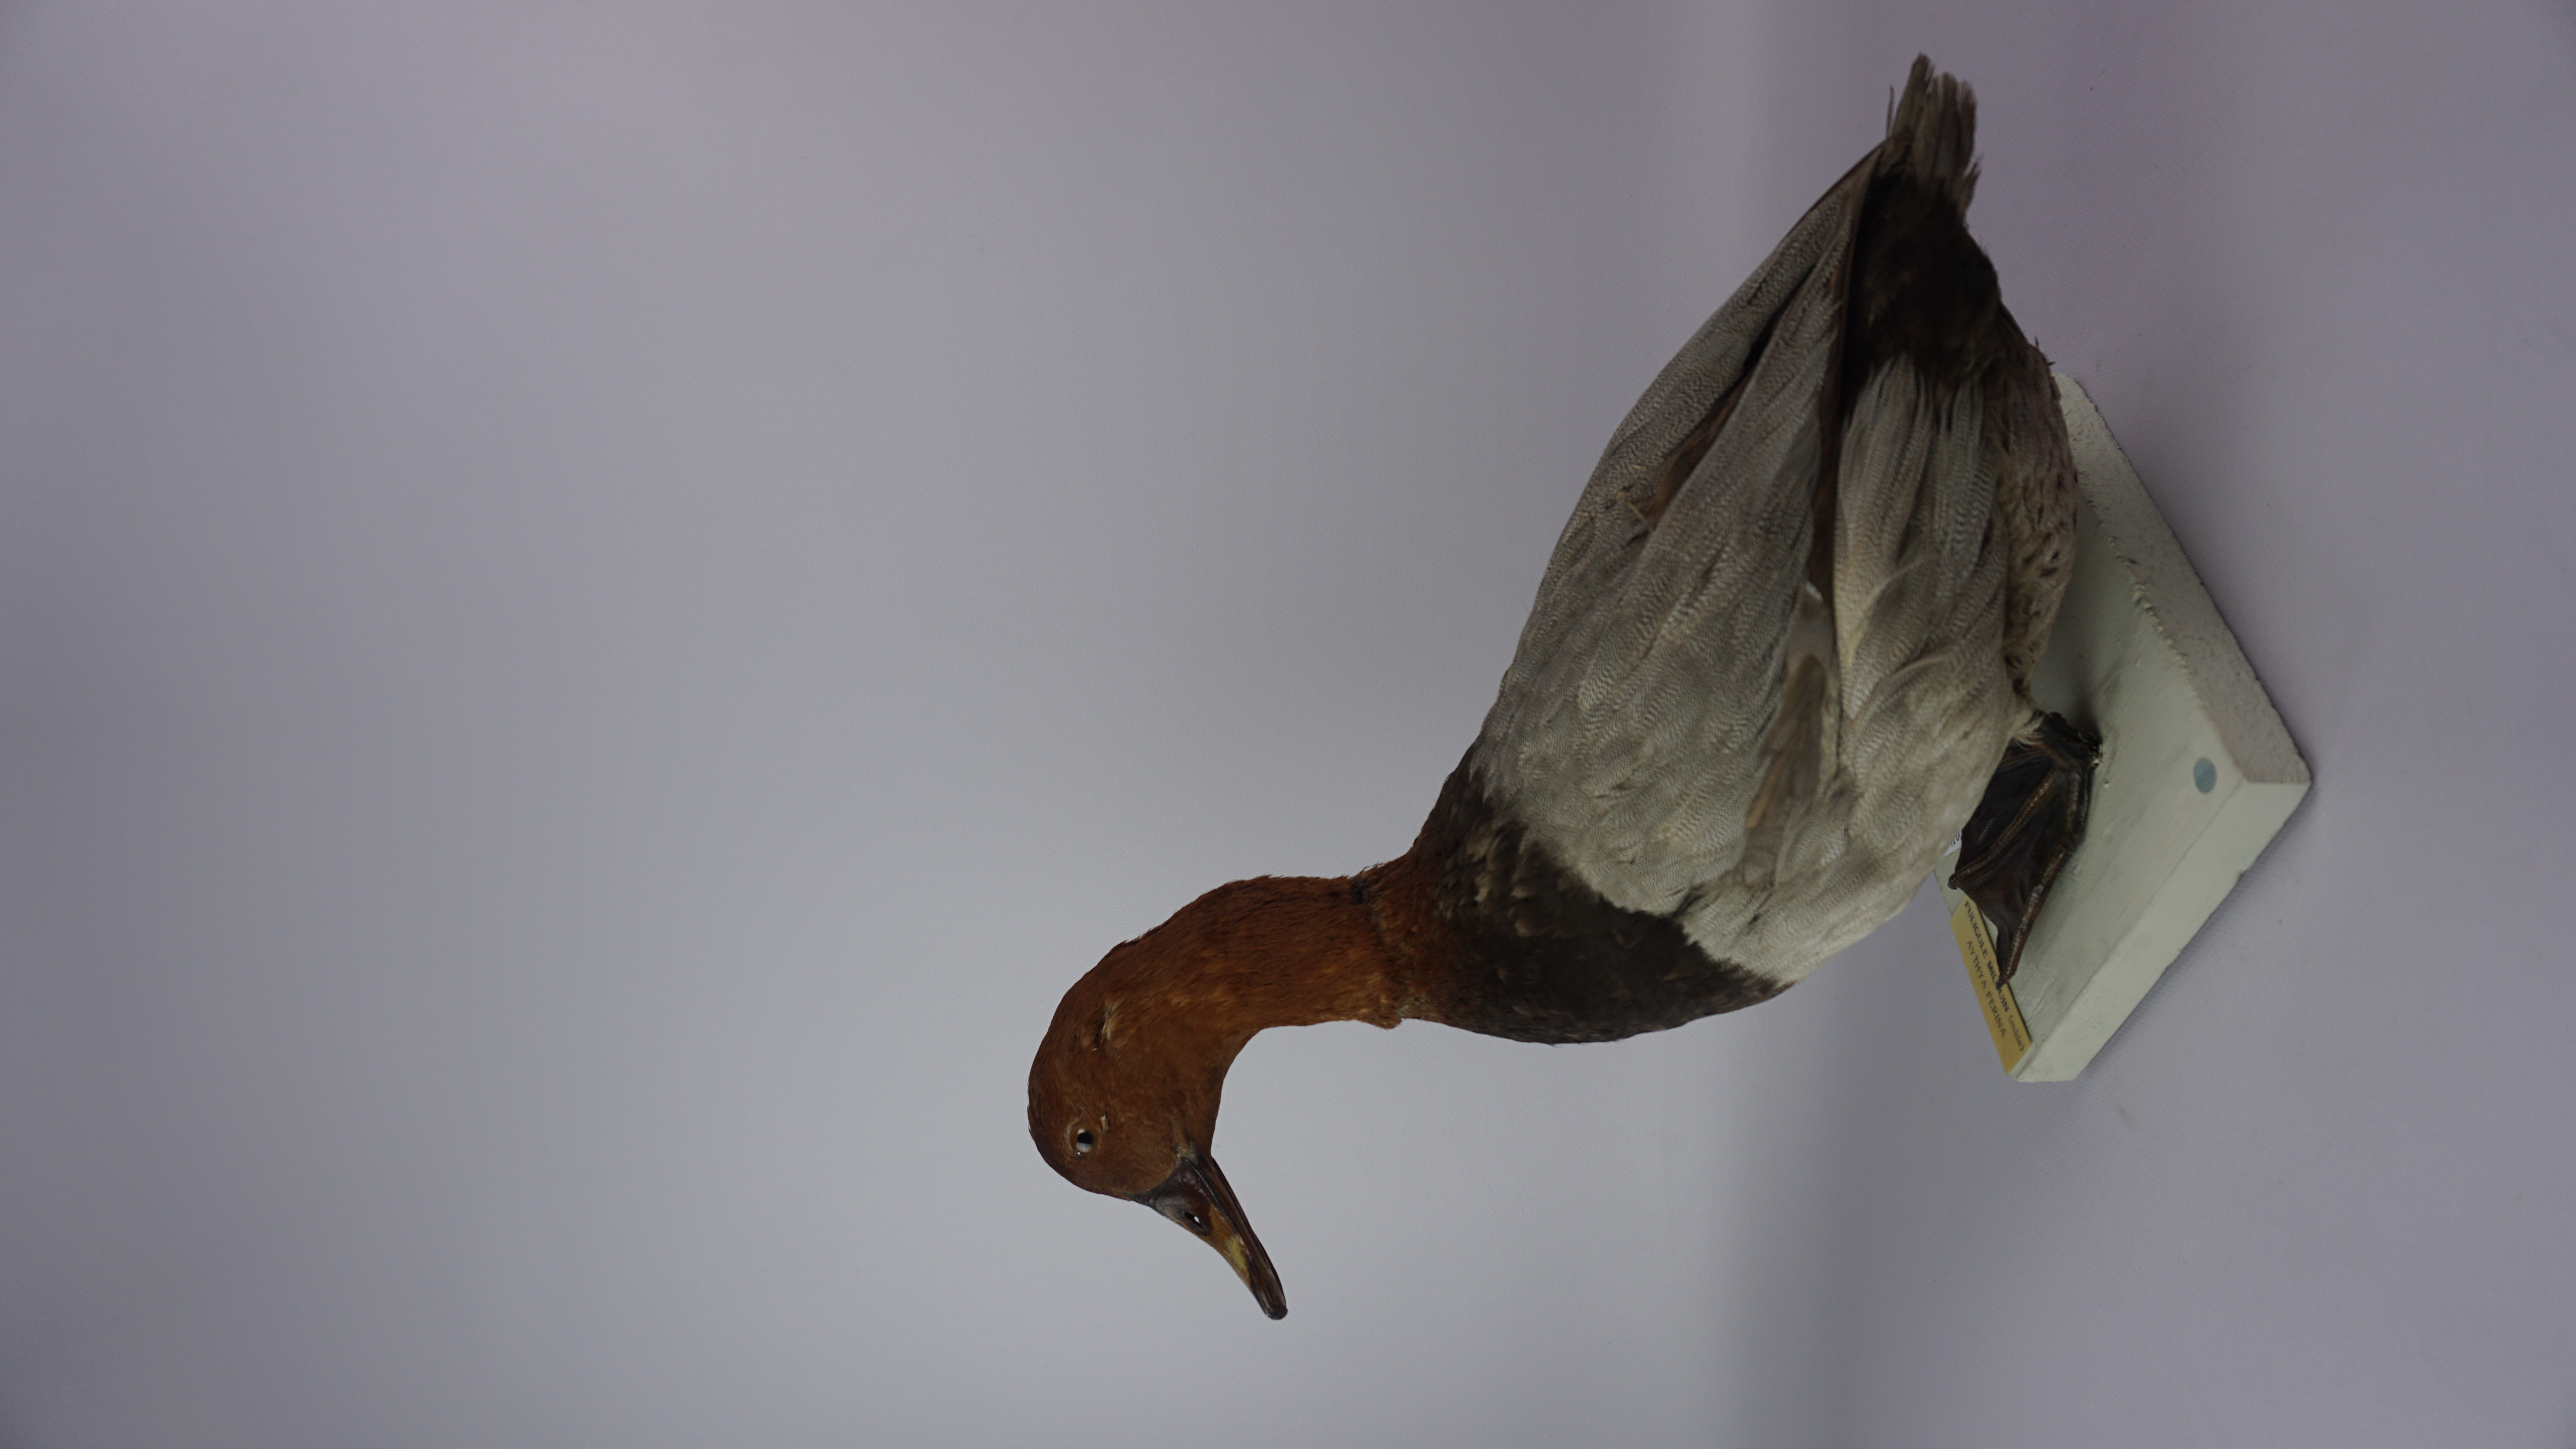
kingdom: Animalia
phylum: Chordata
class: Aves
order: Anseriformes
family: Anatidae
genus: Aythya
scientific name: Aythya ferina
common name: Common pochard
